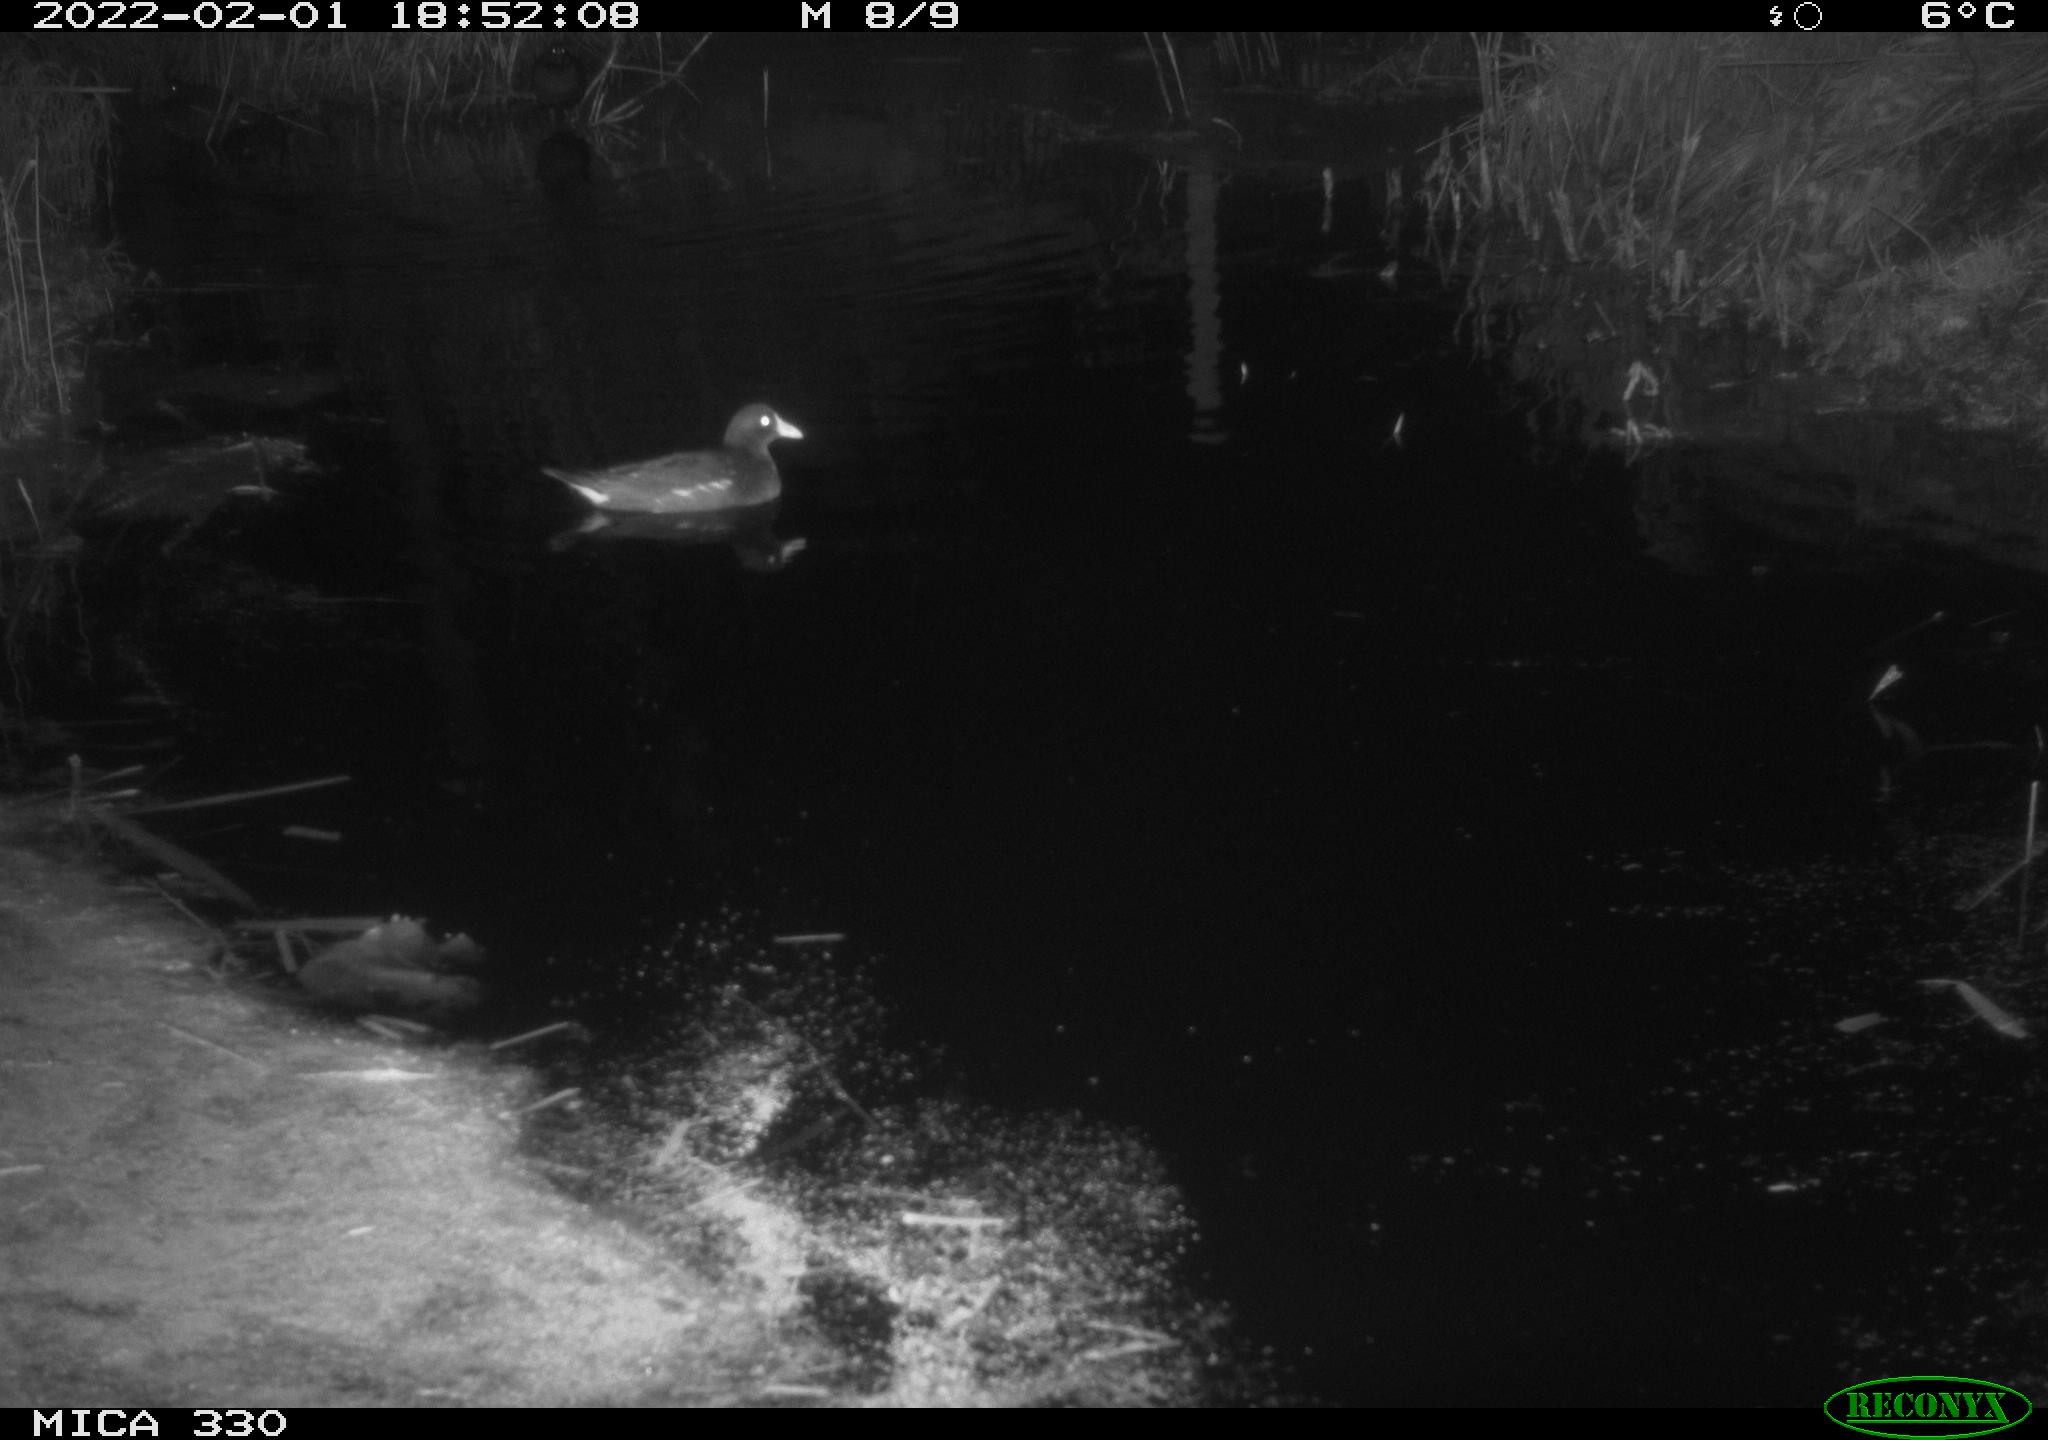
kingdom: Animalia
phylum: Chordata
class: Aves
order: Gruiformes
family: Rallidae
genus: Gallinula
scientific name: Gallinula chloropus
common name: Common moorhen
